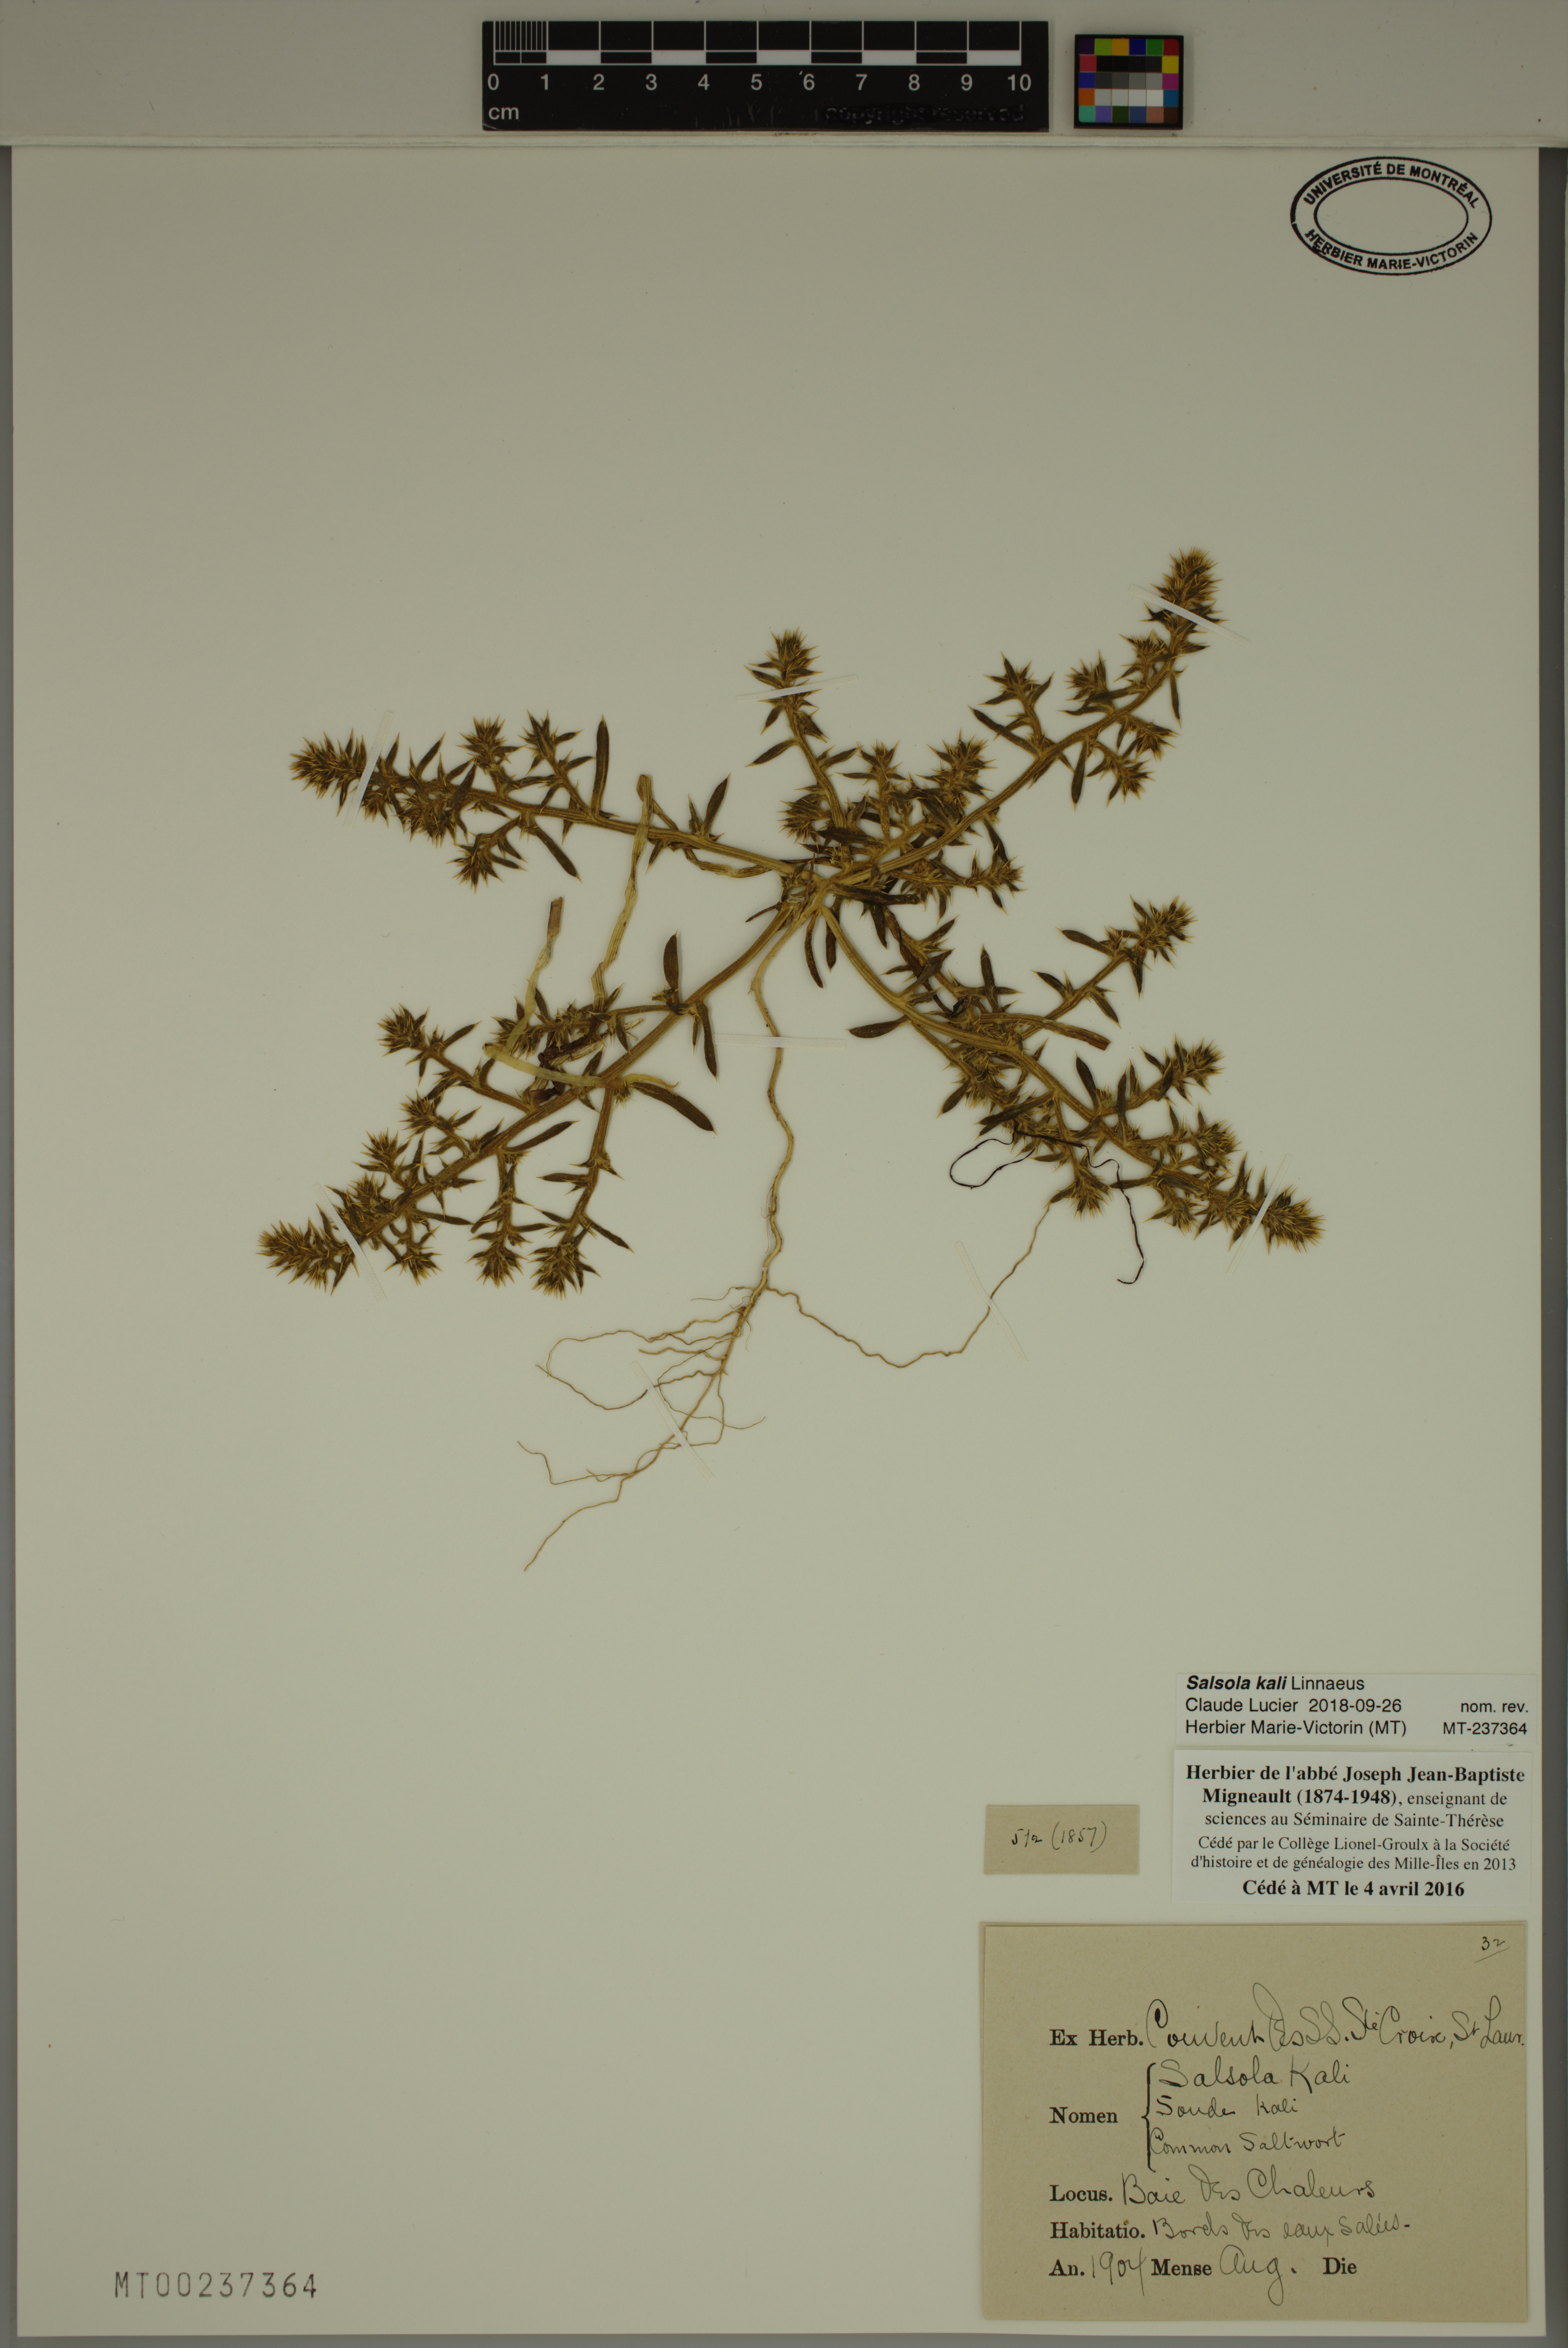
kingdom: Plantae
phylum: Tracheophyta
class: Magnoliopsida
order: Caryophyllales
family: Amaranthaceae
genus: Salsola
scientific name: Salsola kali
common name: Saltwort
